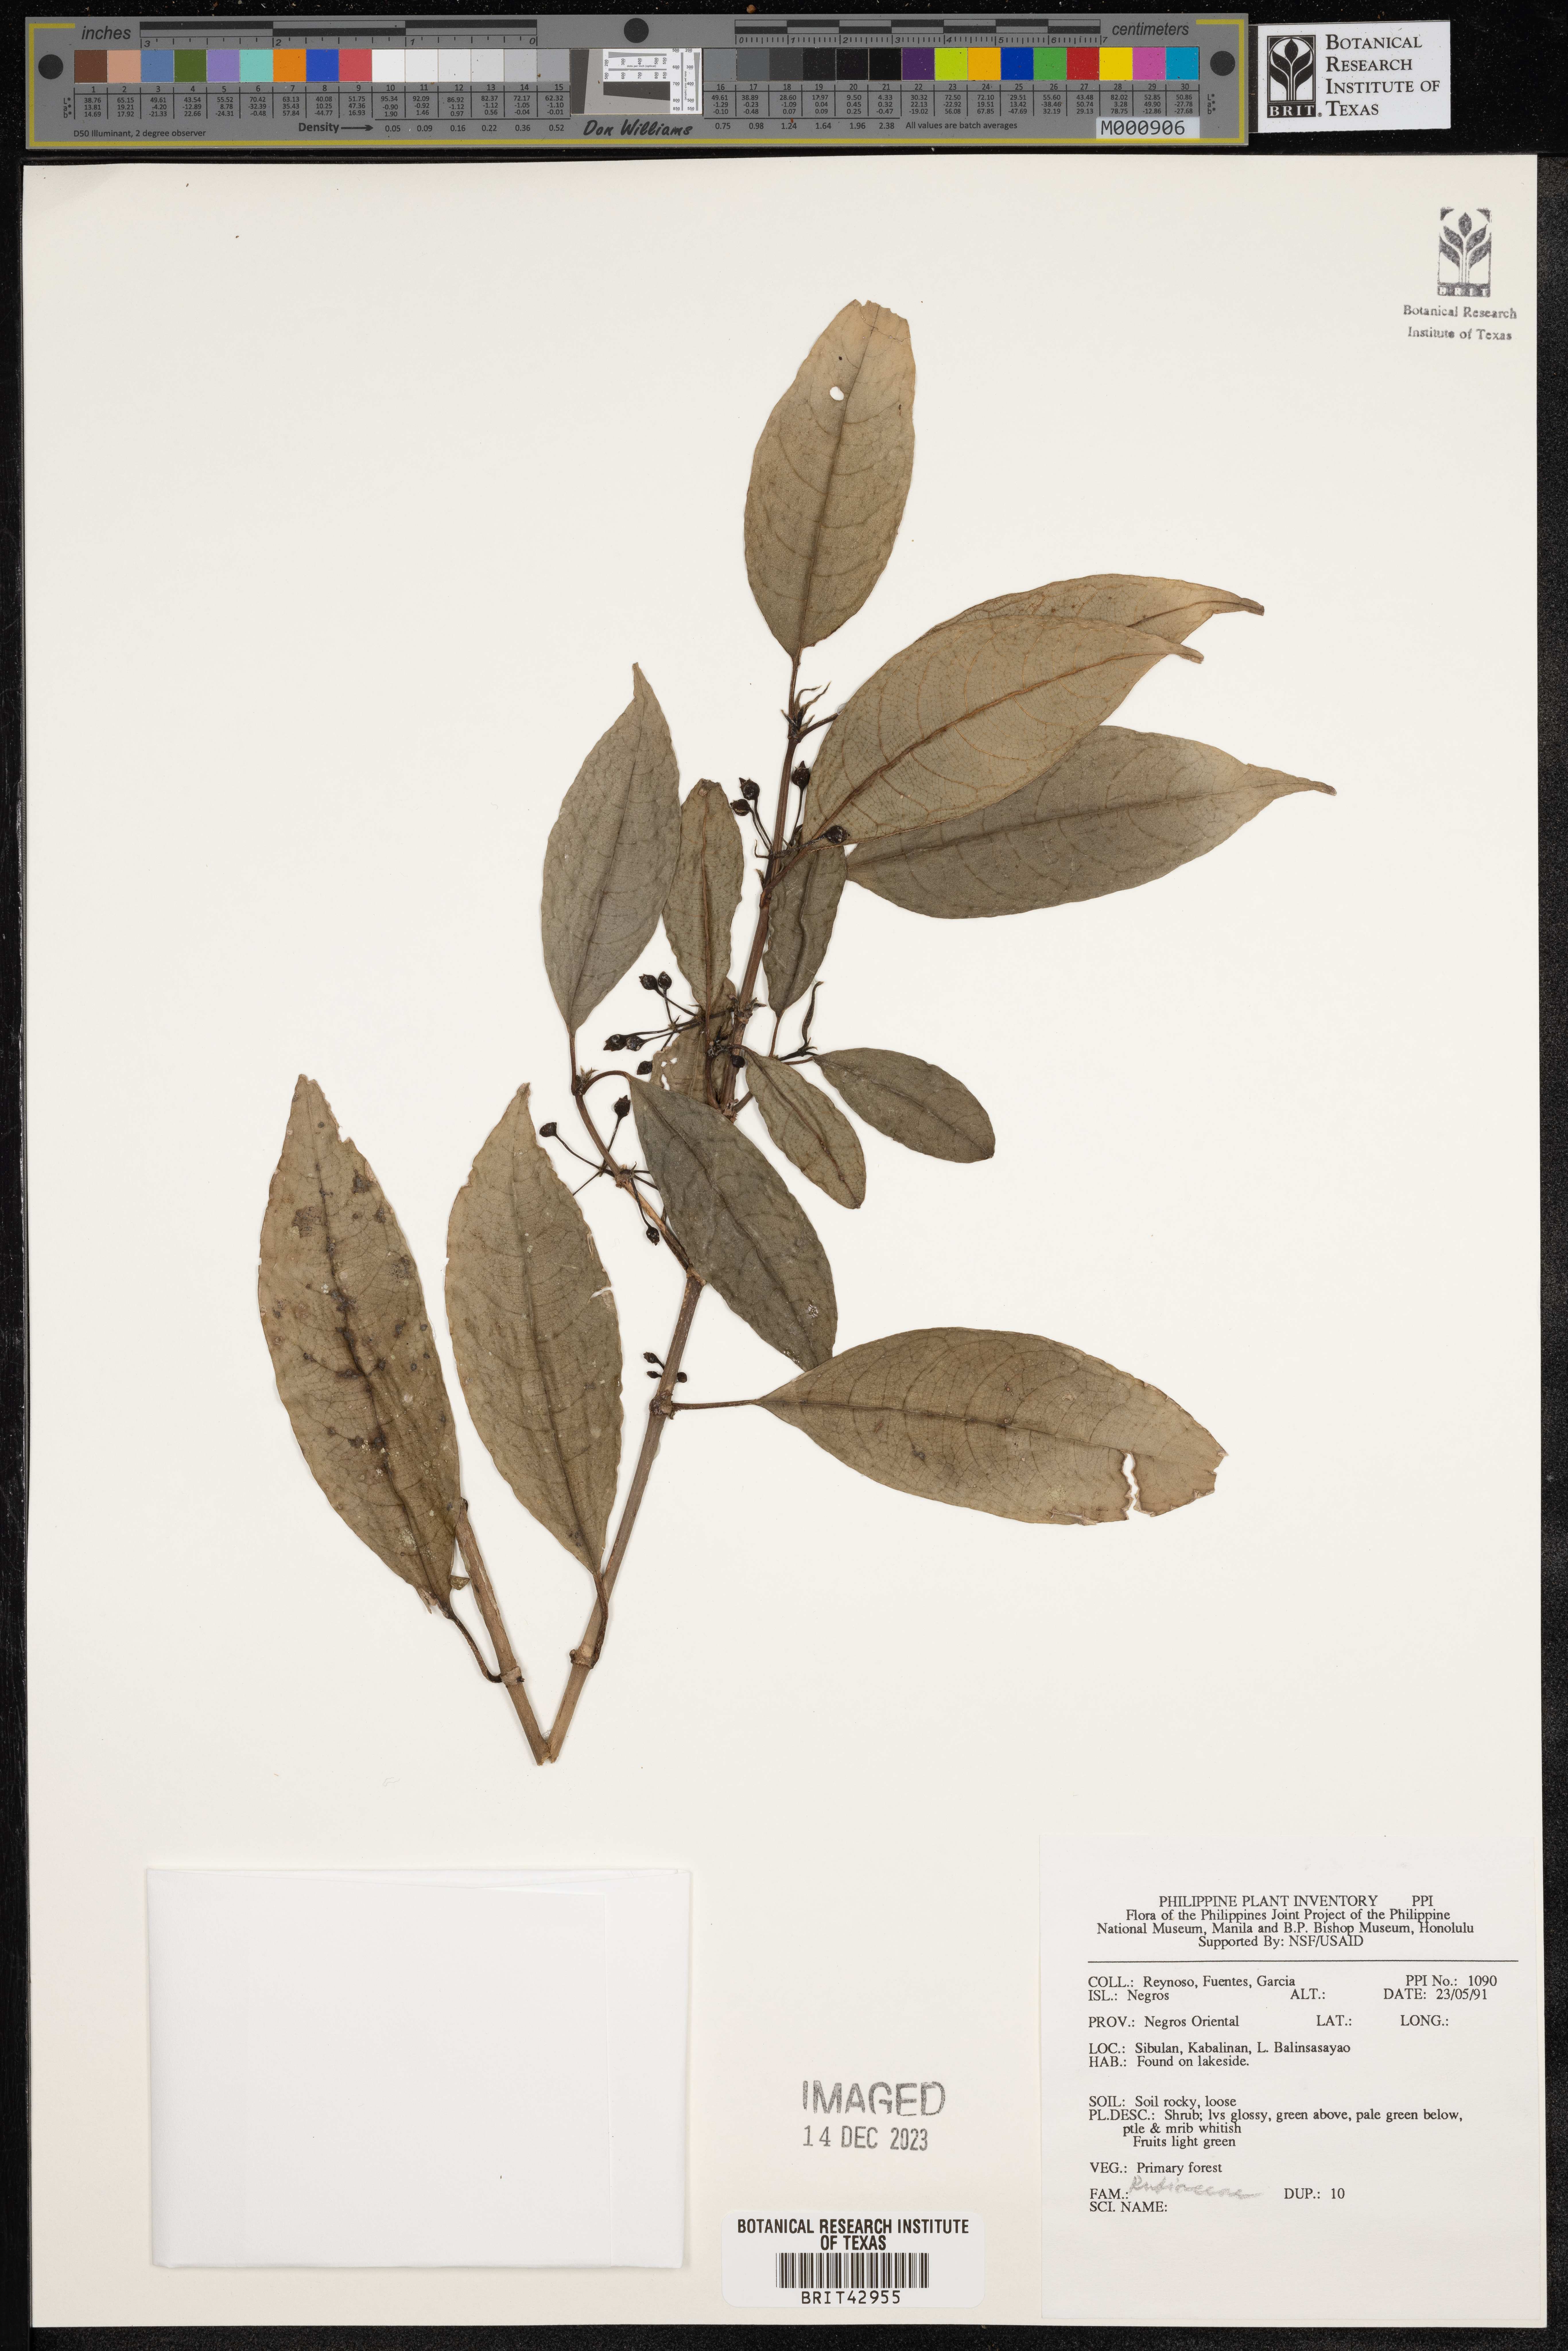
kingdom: Plantae
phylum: Tracheophyta
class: Magnoliopsida
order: Gentianales
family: Rubiaceae
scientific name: Rubiaceae
